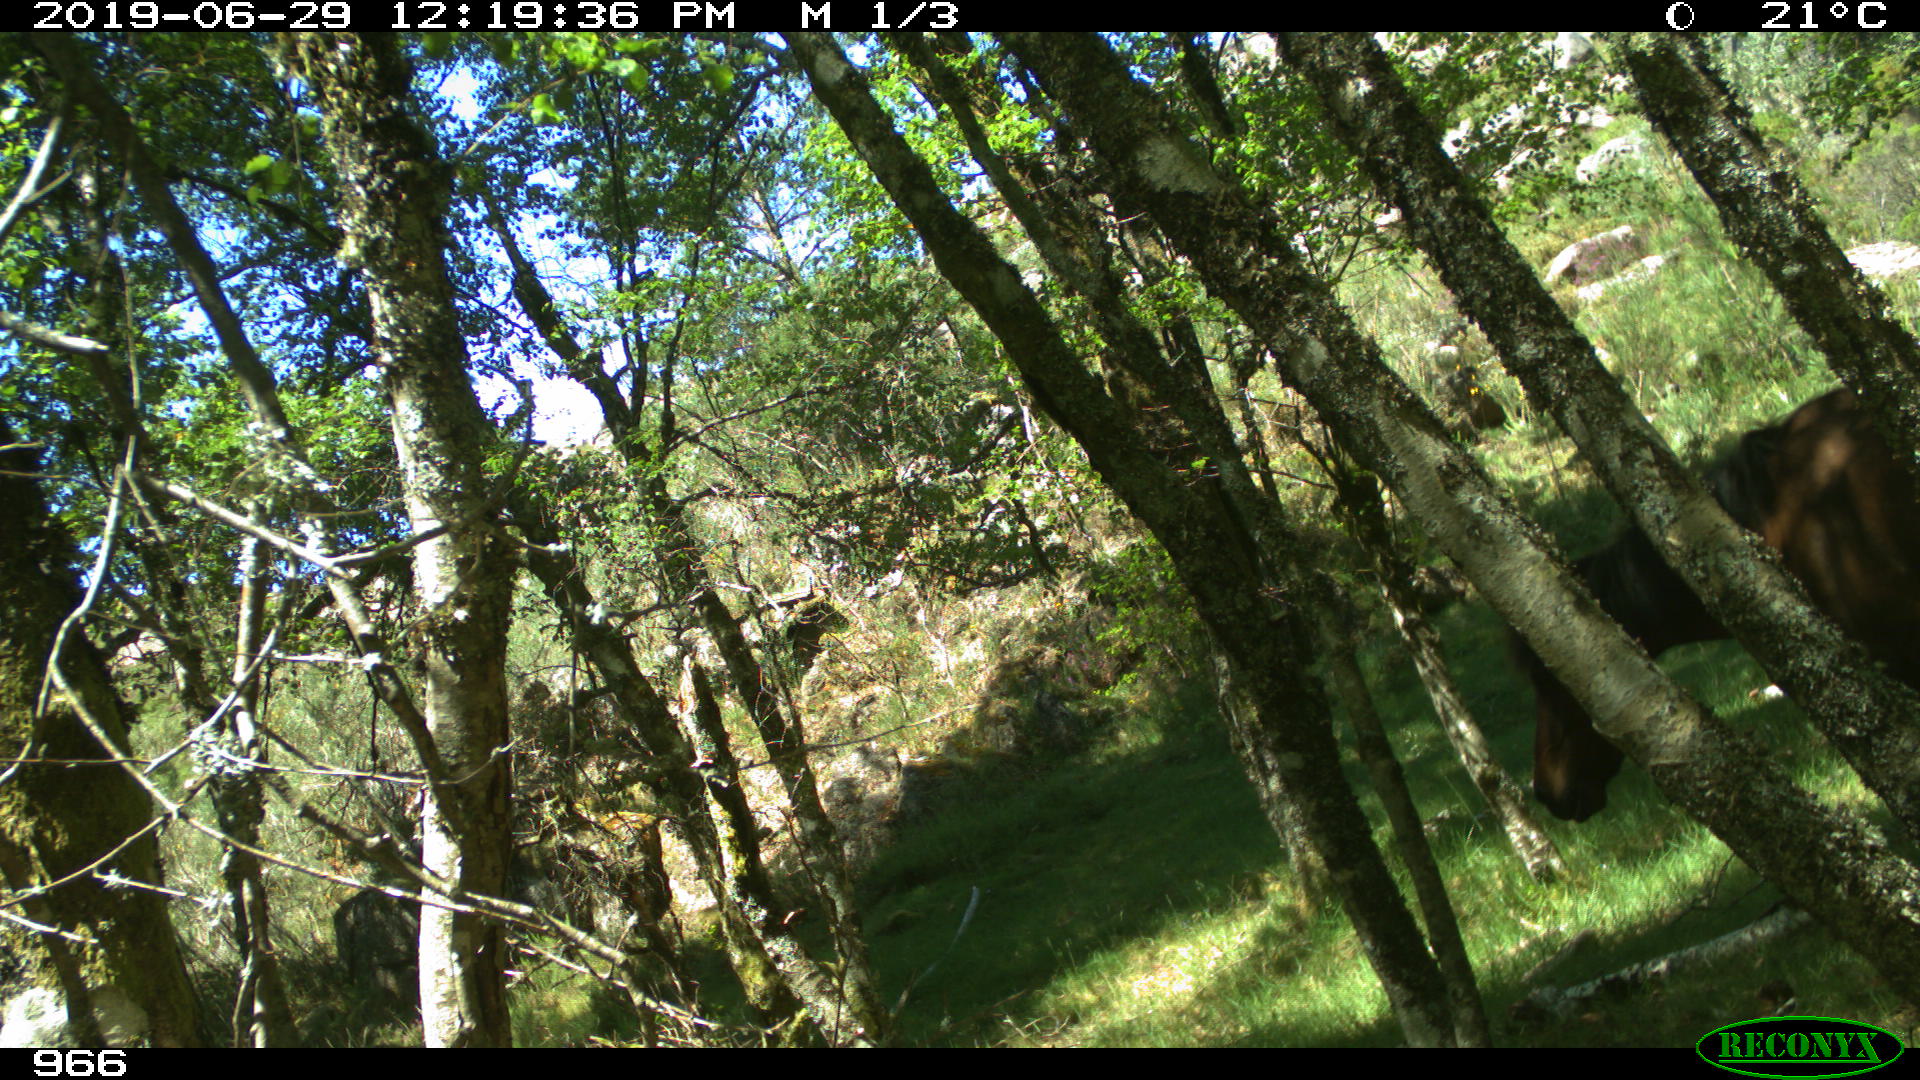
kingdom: Animalia
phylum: Chordata
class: Mammalia
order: Perissodactyla
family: Equidae
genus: Equus
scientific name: Equus caballus
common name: Horse
